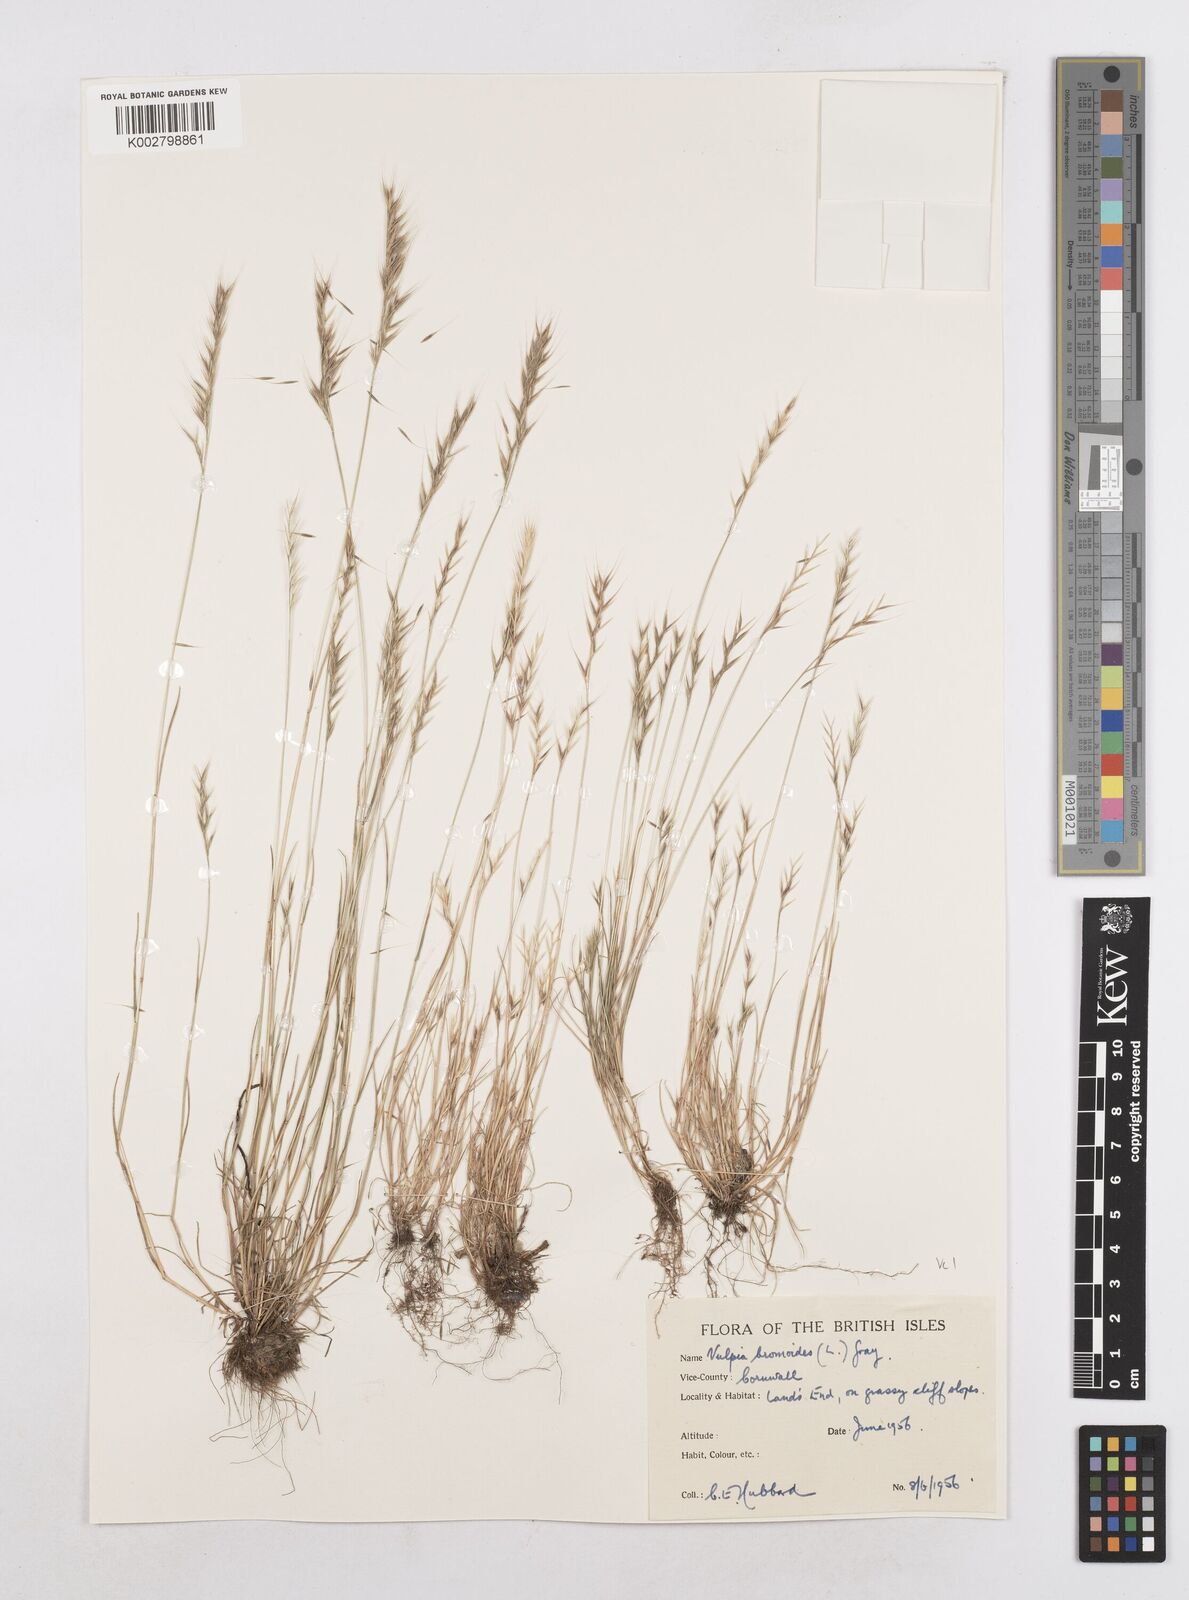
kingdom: Plantae
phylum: Tracheophyta
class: Liliopsida
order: Poales
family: Poaceae
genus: Festuca
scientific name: Festuca bromoides
